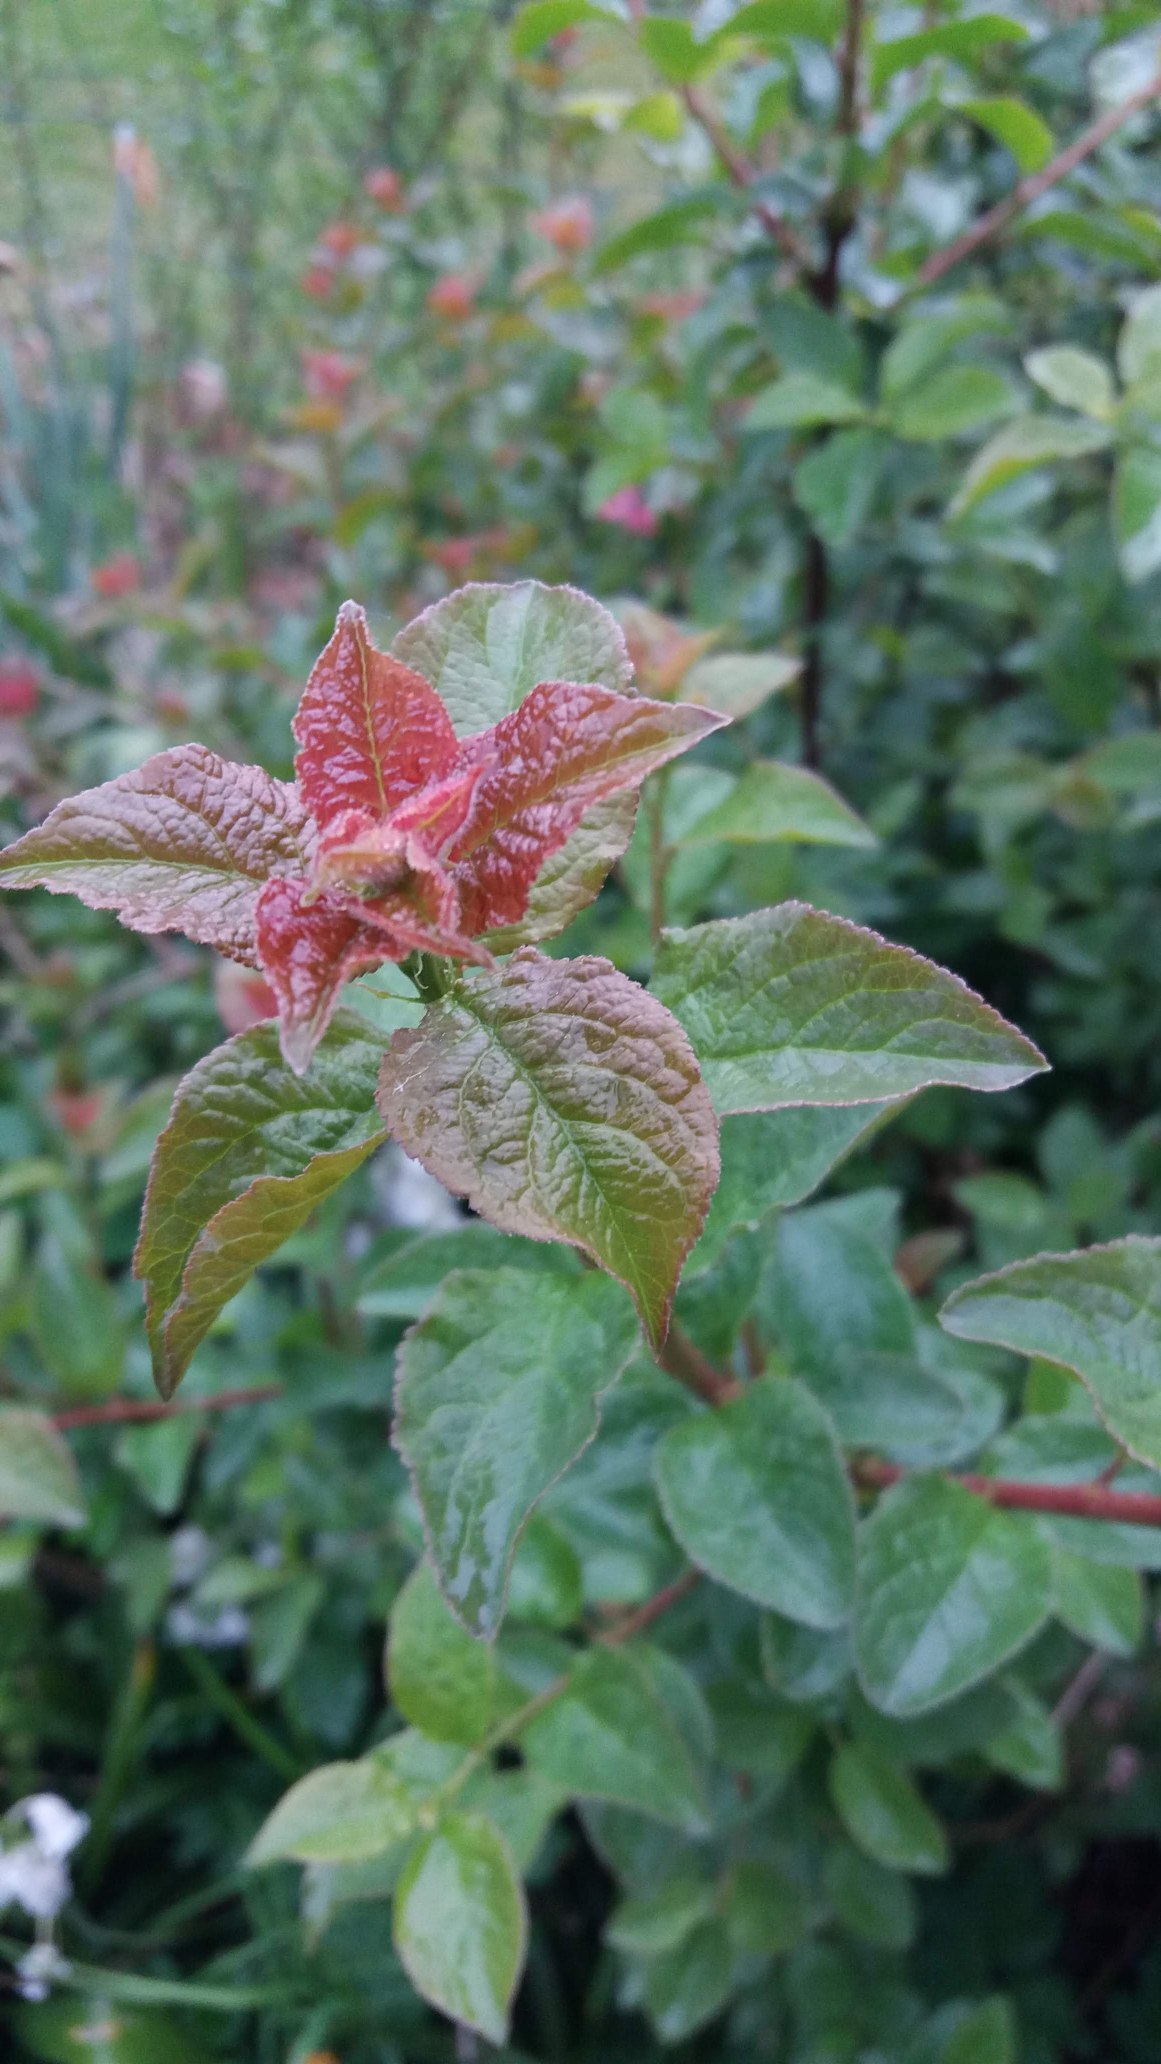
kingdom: Plantae
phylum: Tracheophyta
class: Magnoliopsida
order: Rosales
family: Rosaceae
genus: Prunus
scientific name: Prunus
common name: Blommeslægten
